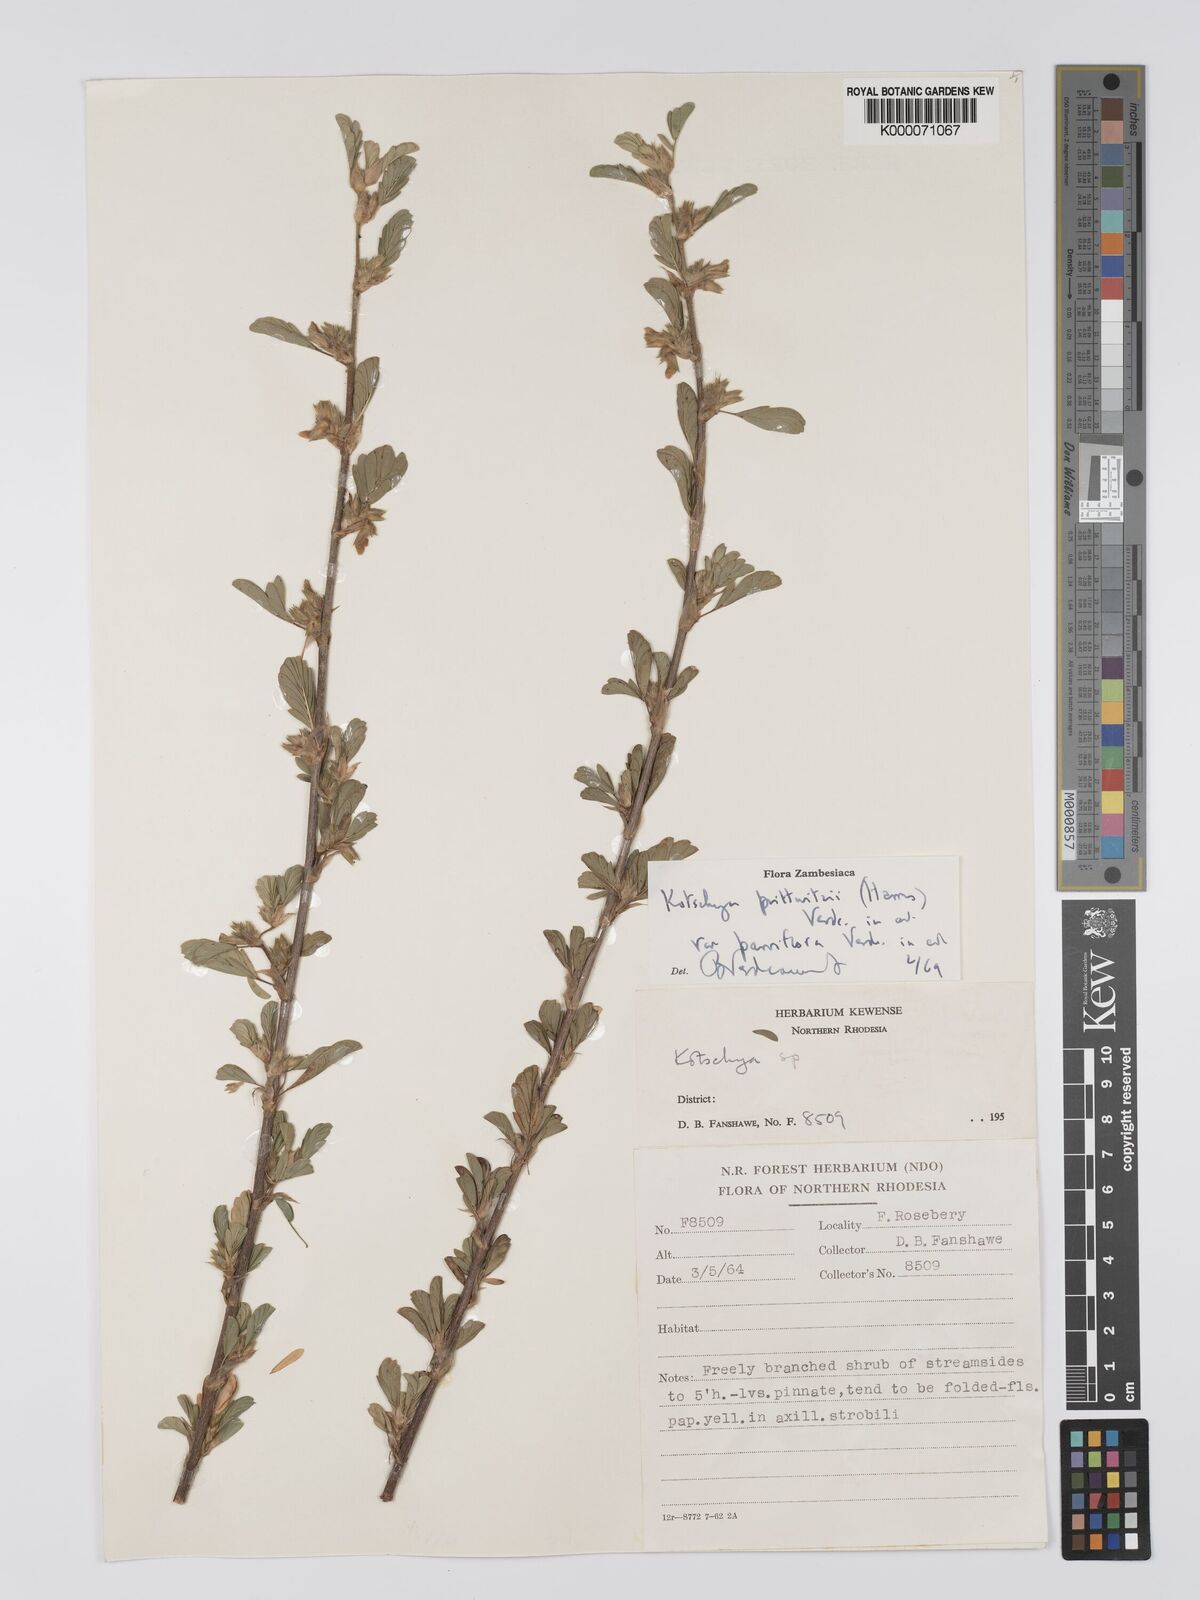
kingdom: Plantae
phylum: Tracheophyta
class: Magnoliopsida
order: Fabales
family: Fabaceae
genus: Kotschya
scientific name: Kotschya prittwitzii
